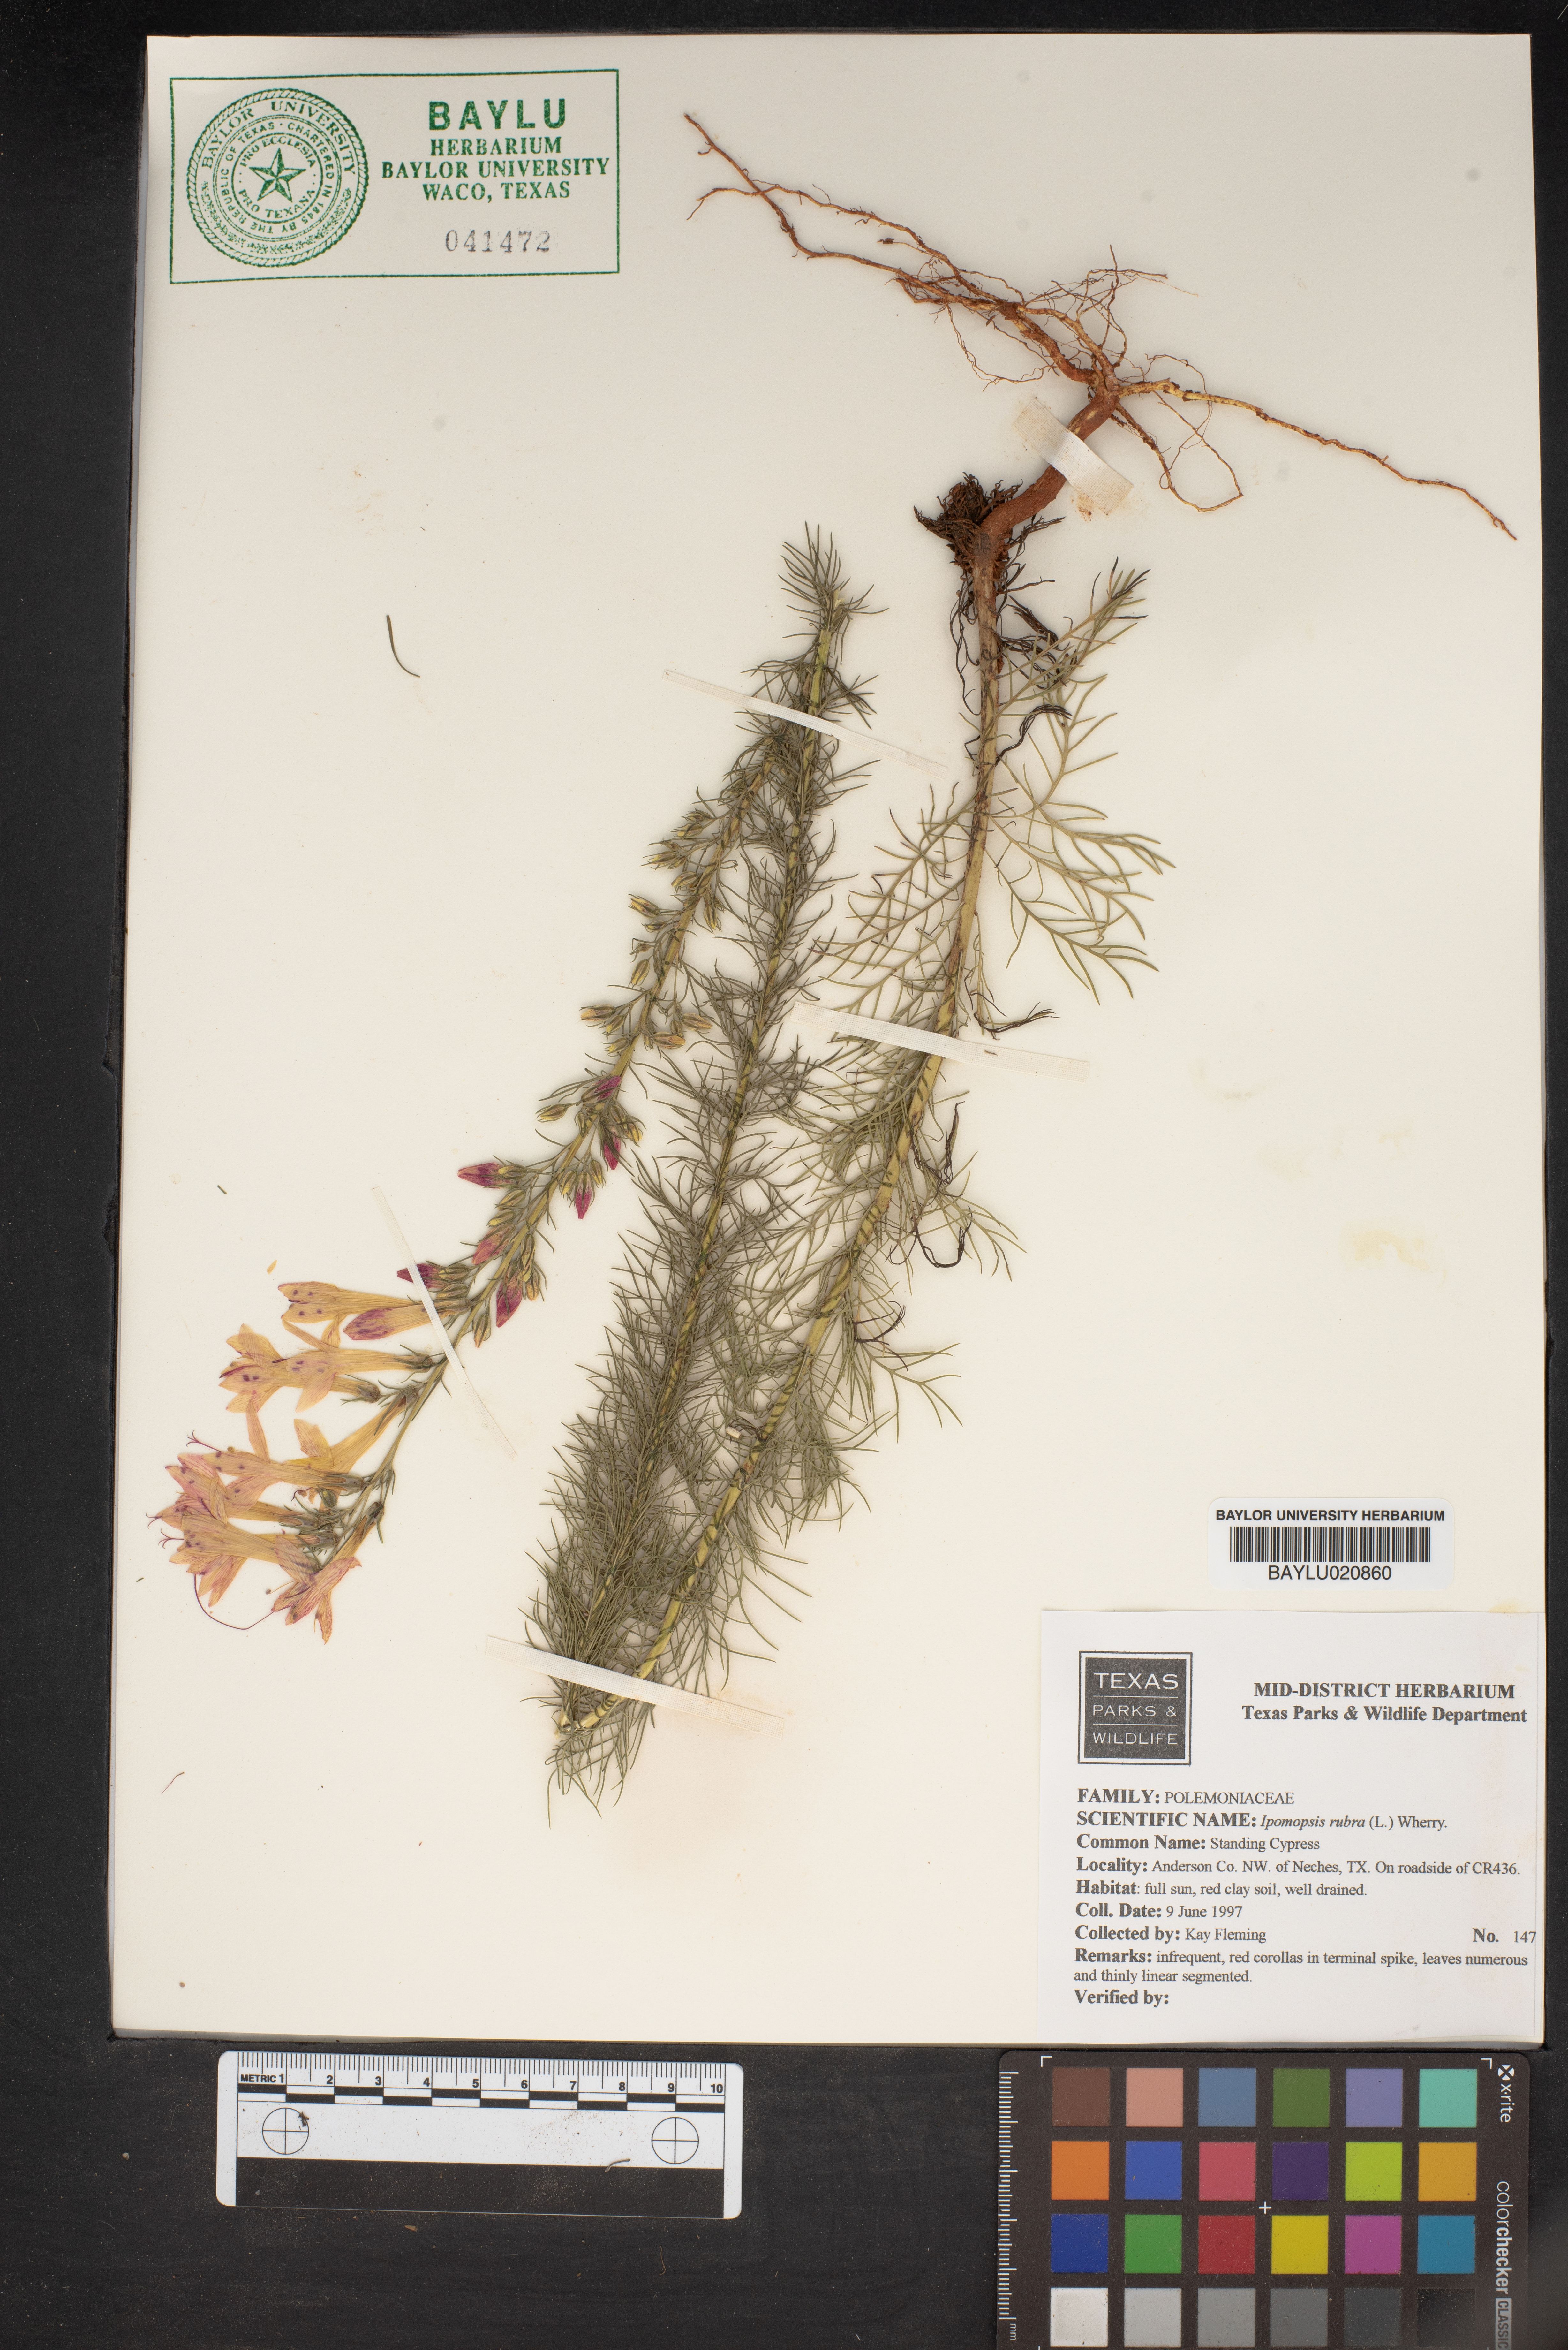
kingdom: Plantae
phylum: Tracheophyta
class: Magnoliopsida
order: Ericales
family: Polemoniaceae
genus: Ipomopsis
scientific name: Ipomopsis rubra
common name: Skyrocket
